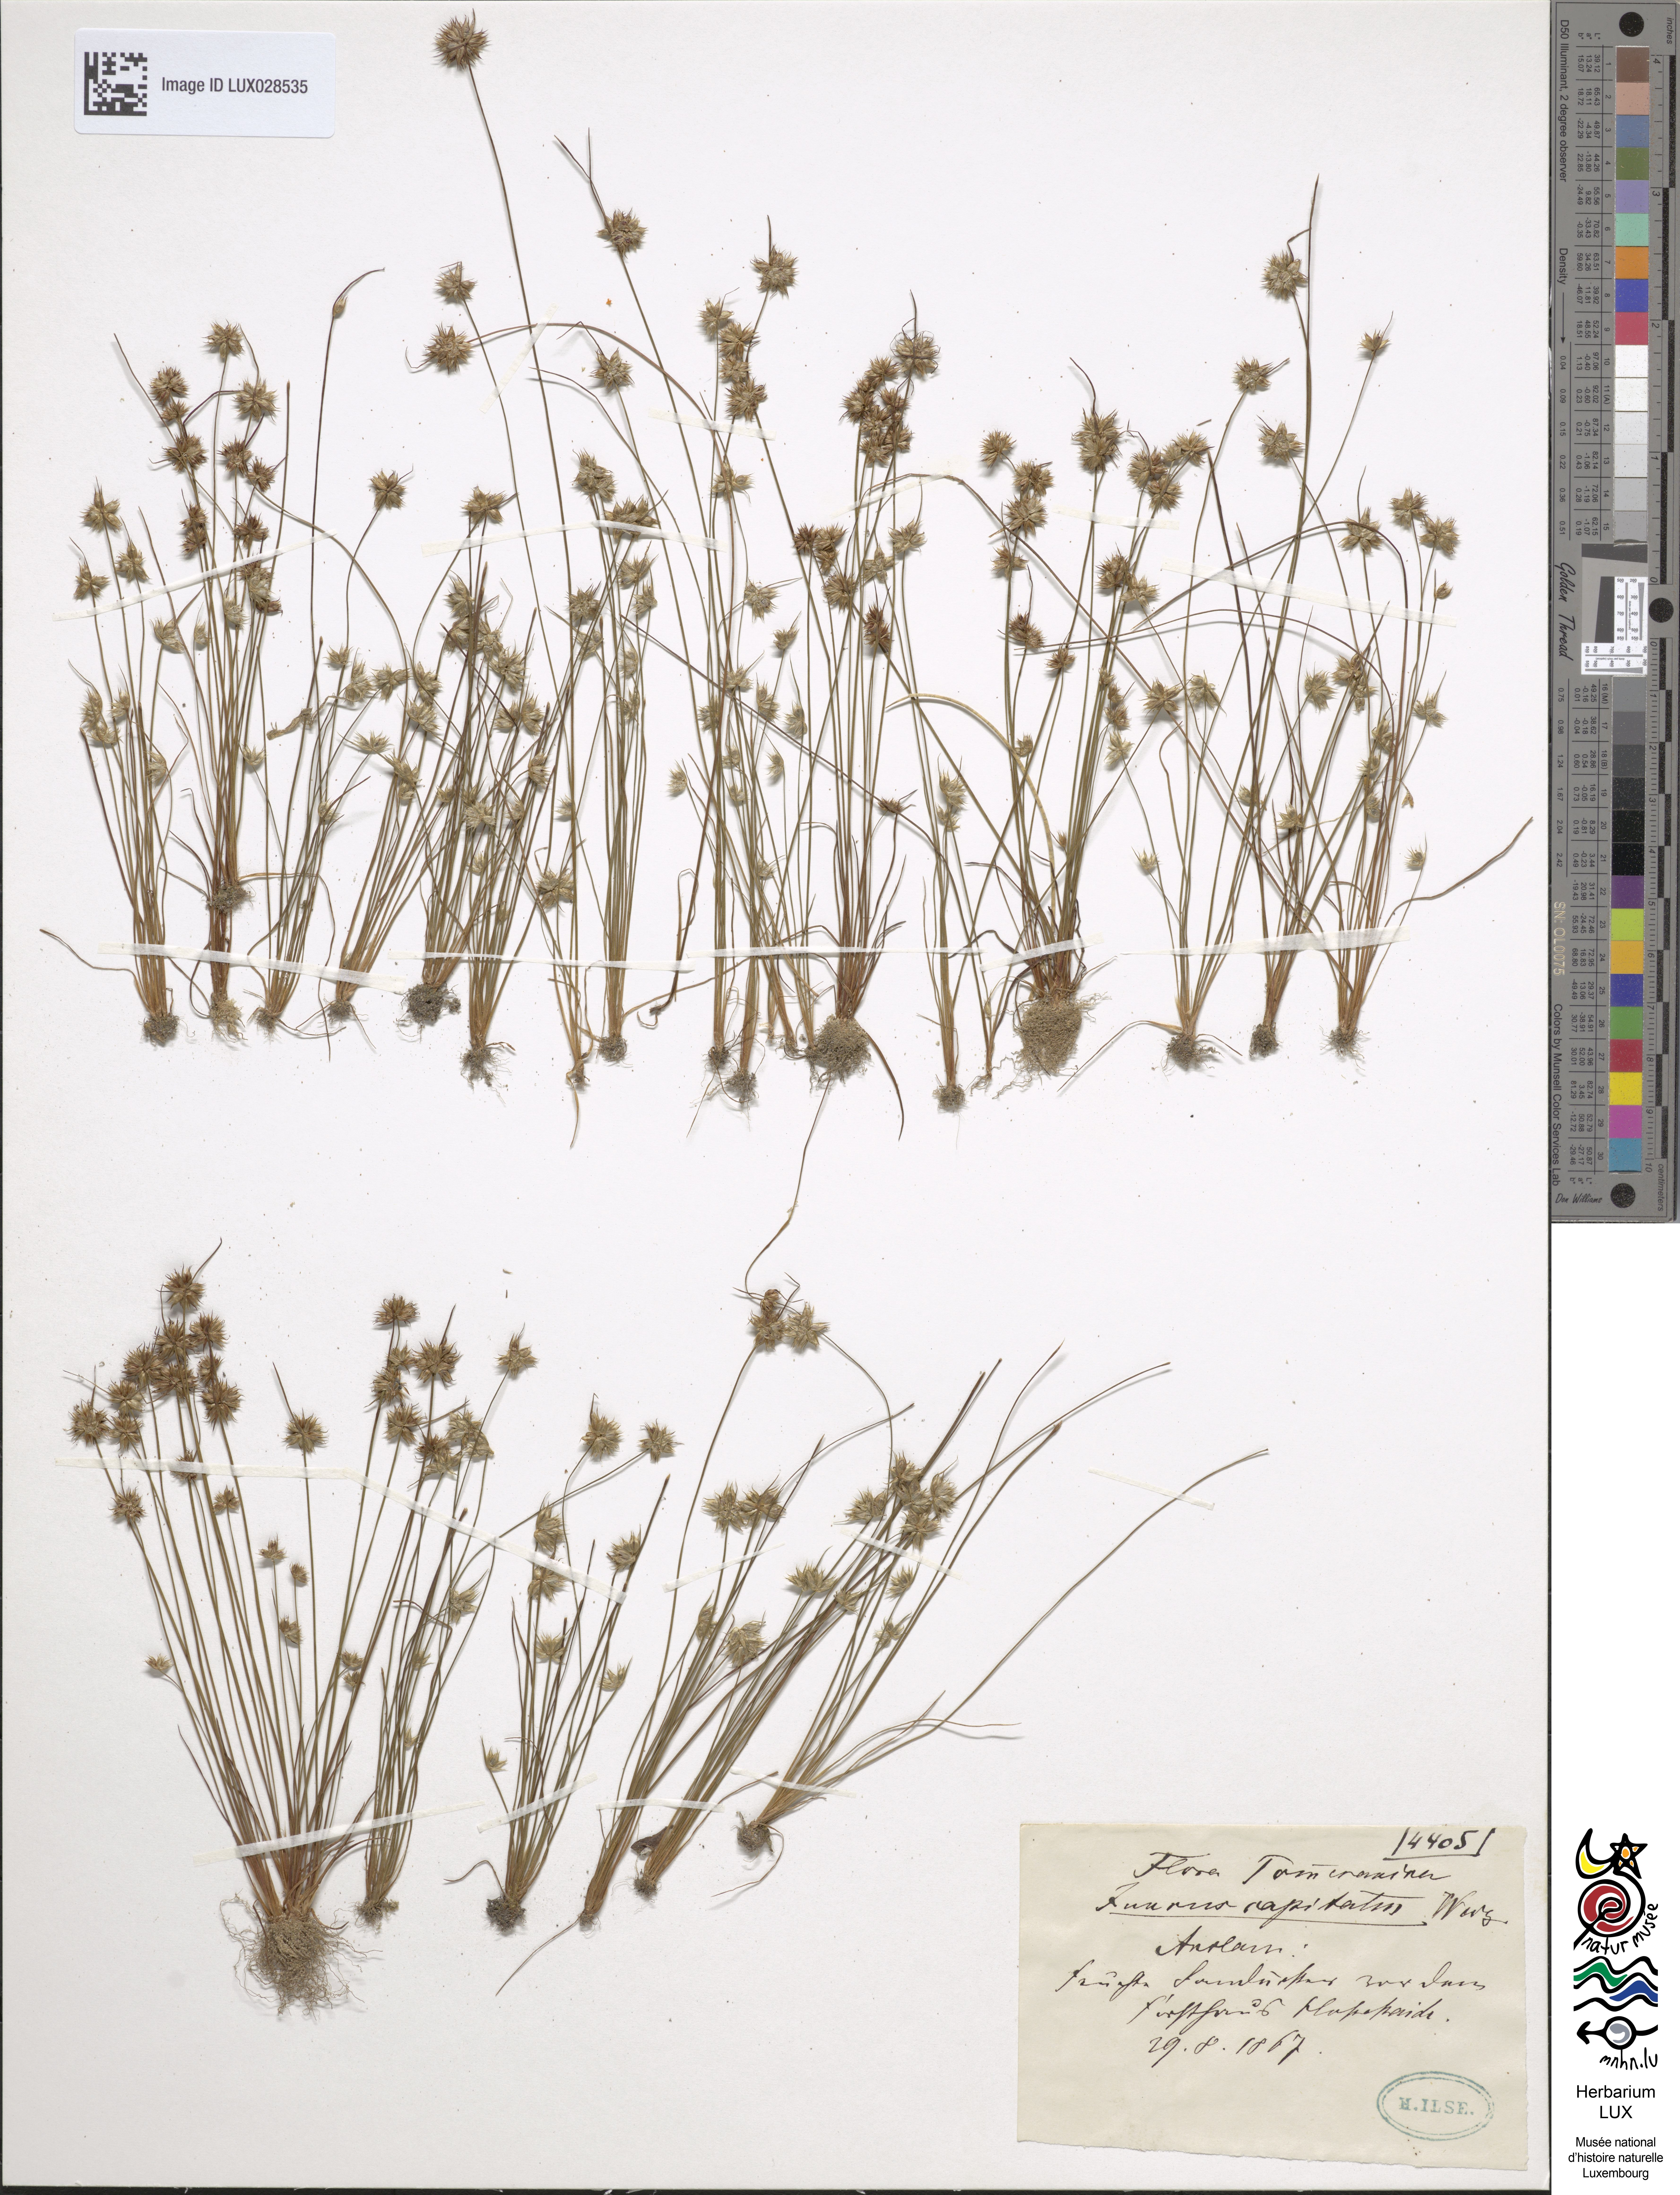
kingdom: Plantae
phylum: Tracheophyta
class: Liliopsida
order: Poales
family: Juncaceae
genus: Juncus
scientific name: Juncus capitatus
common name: Dwarf rush
